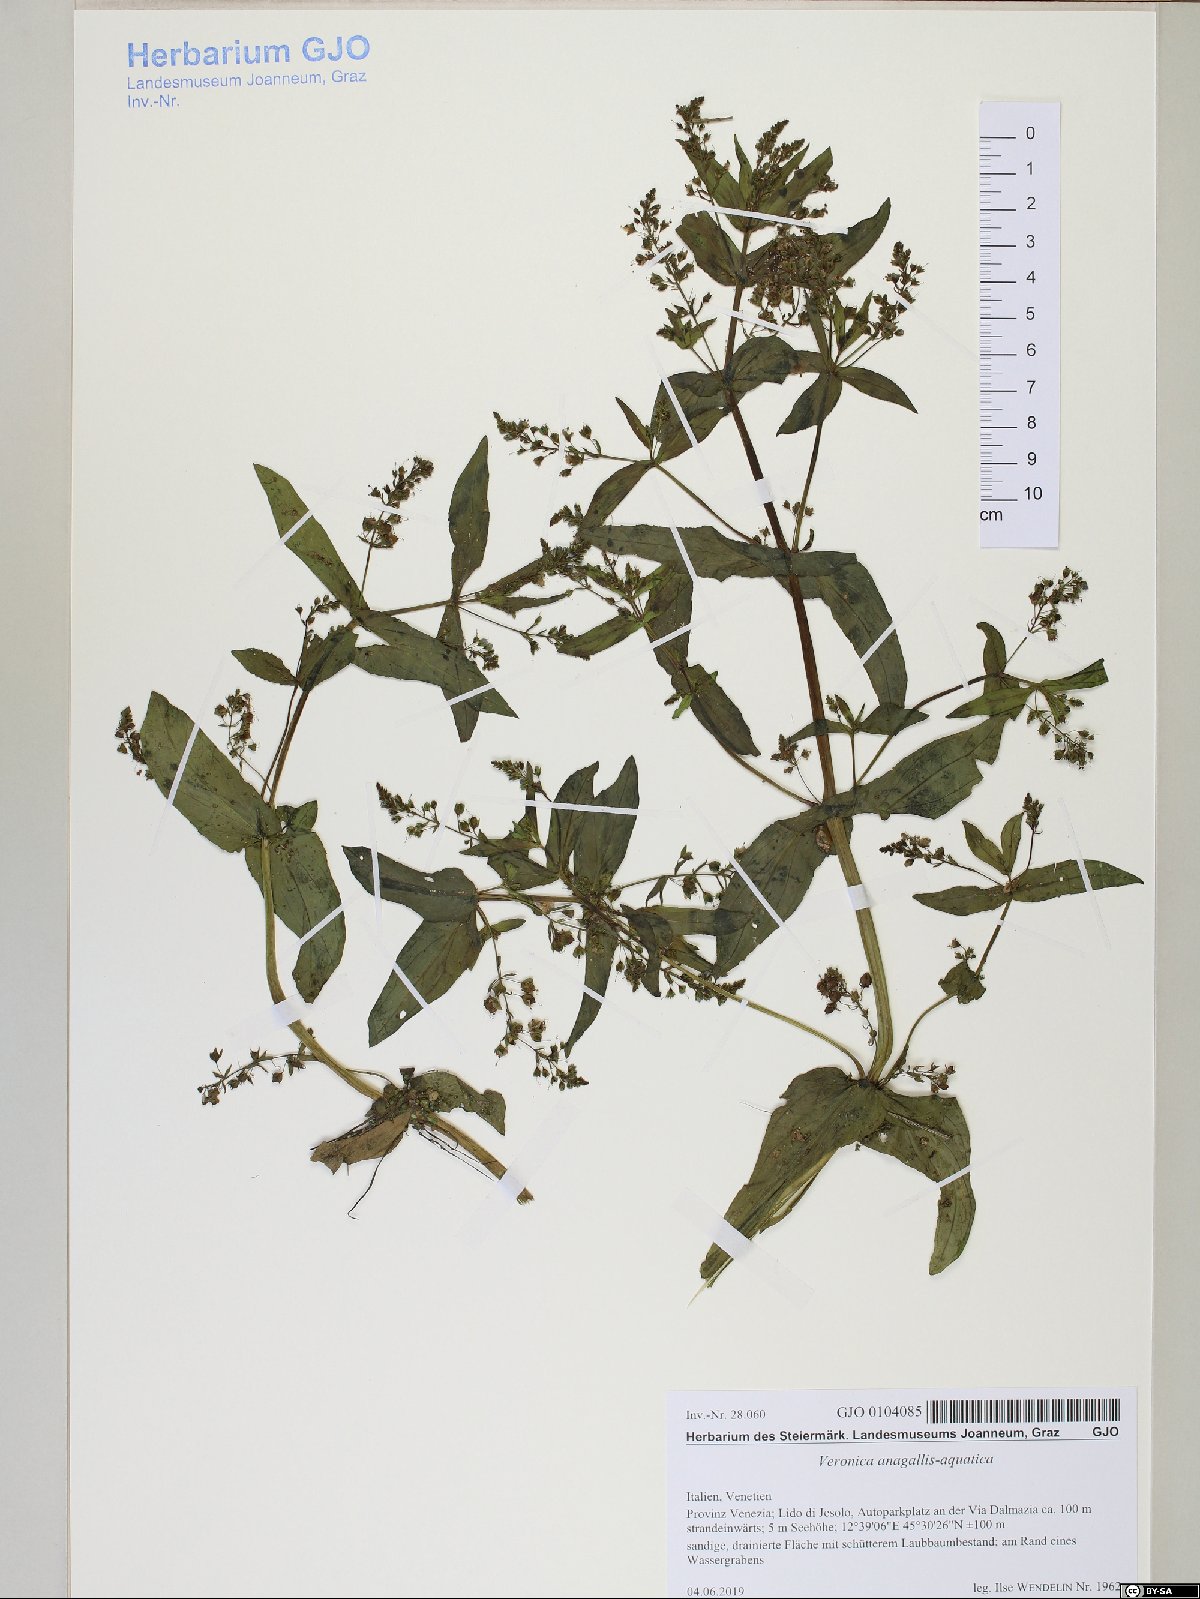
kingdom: Plantae
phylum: Tracheophyta
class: Magnoliopsida
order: Lamiales
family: Plantaginaceae
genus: Veronica
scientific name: Veronica anagallis-aquatica
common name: Water speedwell
